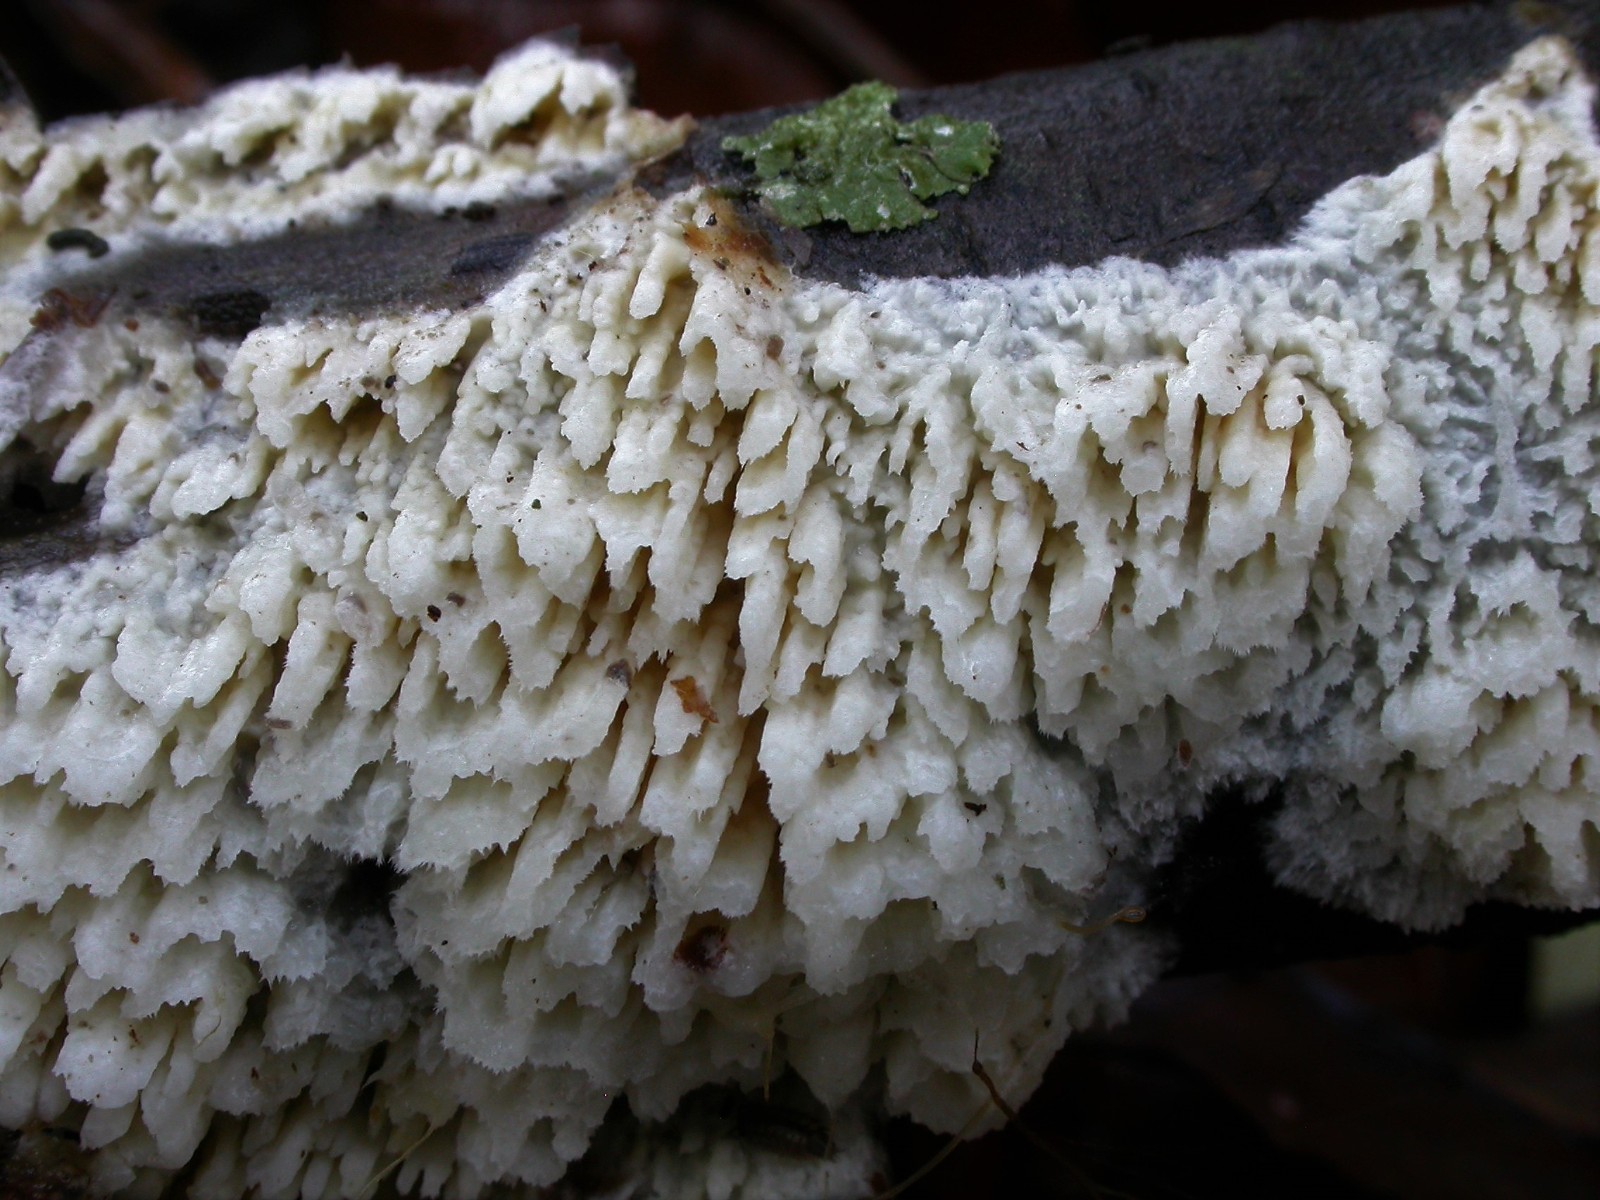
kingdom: Fungi
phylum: Basidiomycota
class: Agaricomycetes
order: Hymenochaetales
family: Schizoporaceae
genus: Xylodon
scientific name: Xylodon radula
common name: grovtandet kalkskind
